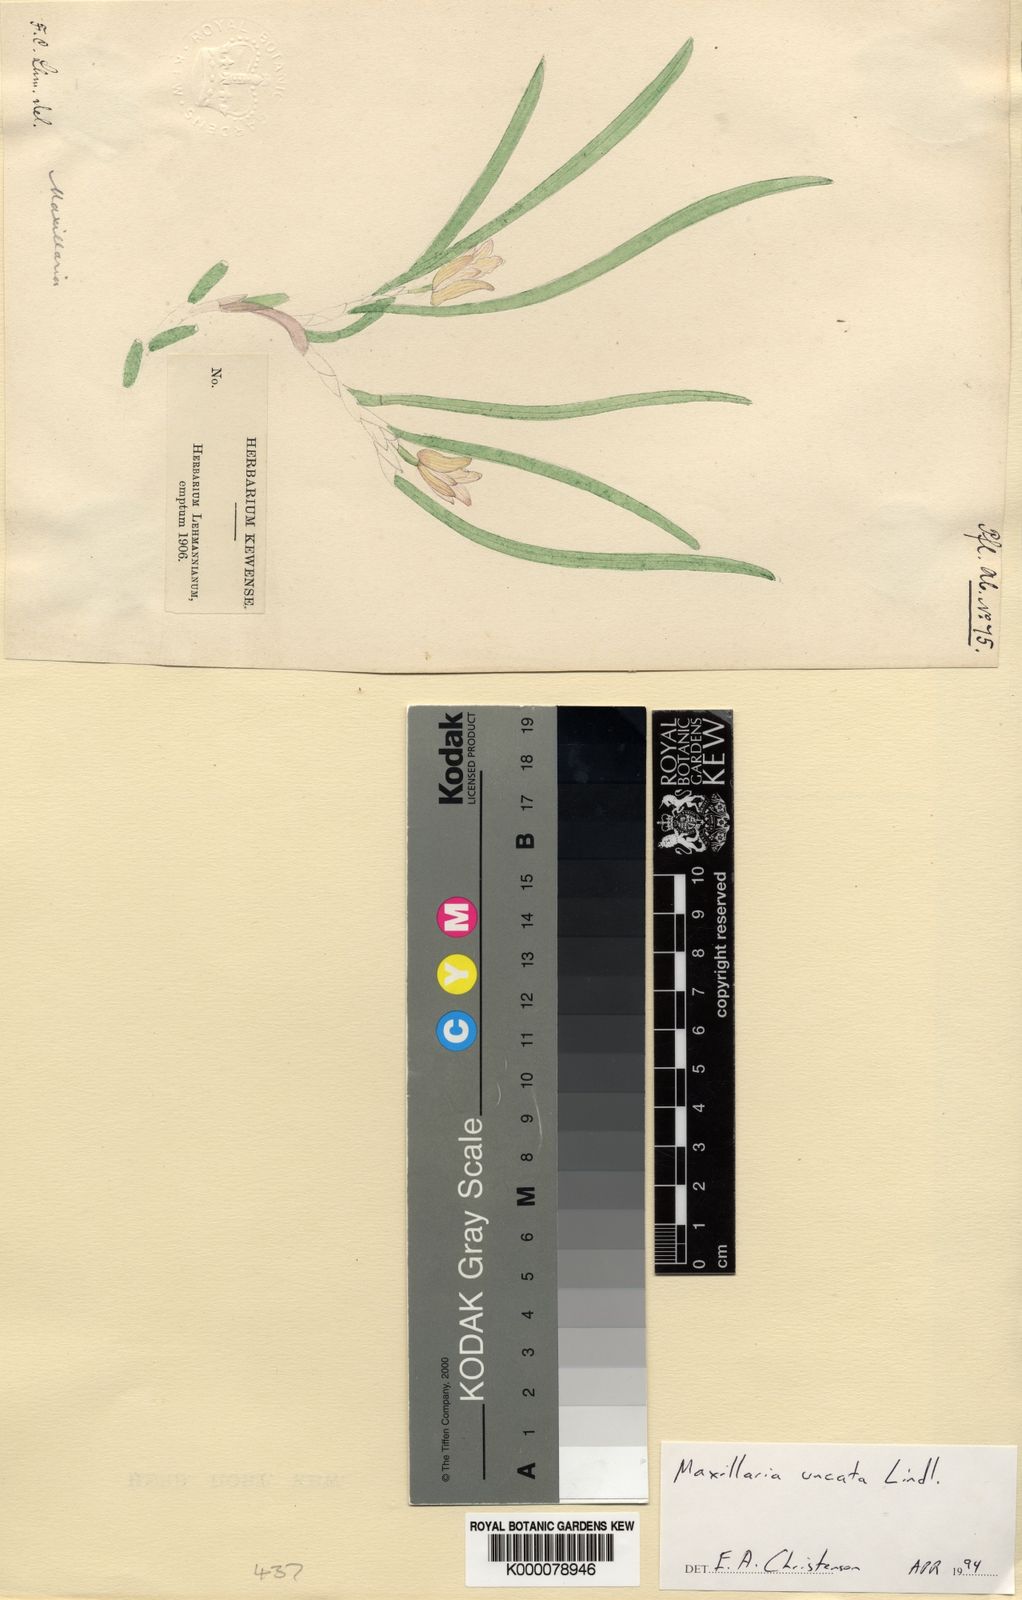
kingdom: Plantae
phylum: Tracheophyta
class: Liliopsida
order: Asparagales
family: Orchidaceae
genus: Maxillaria
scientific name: Maxillaria uncata
